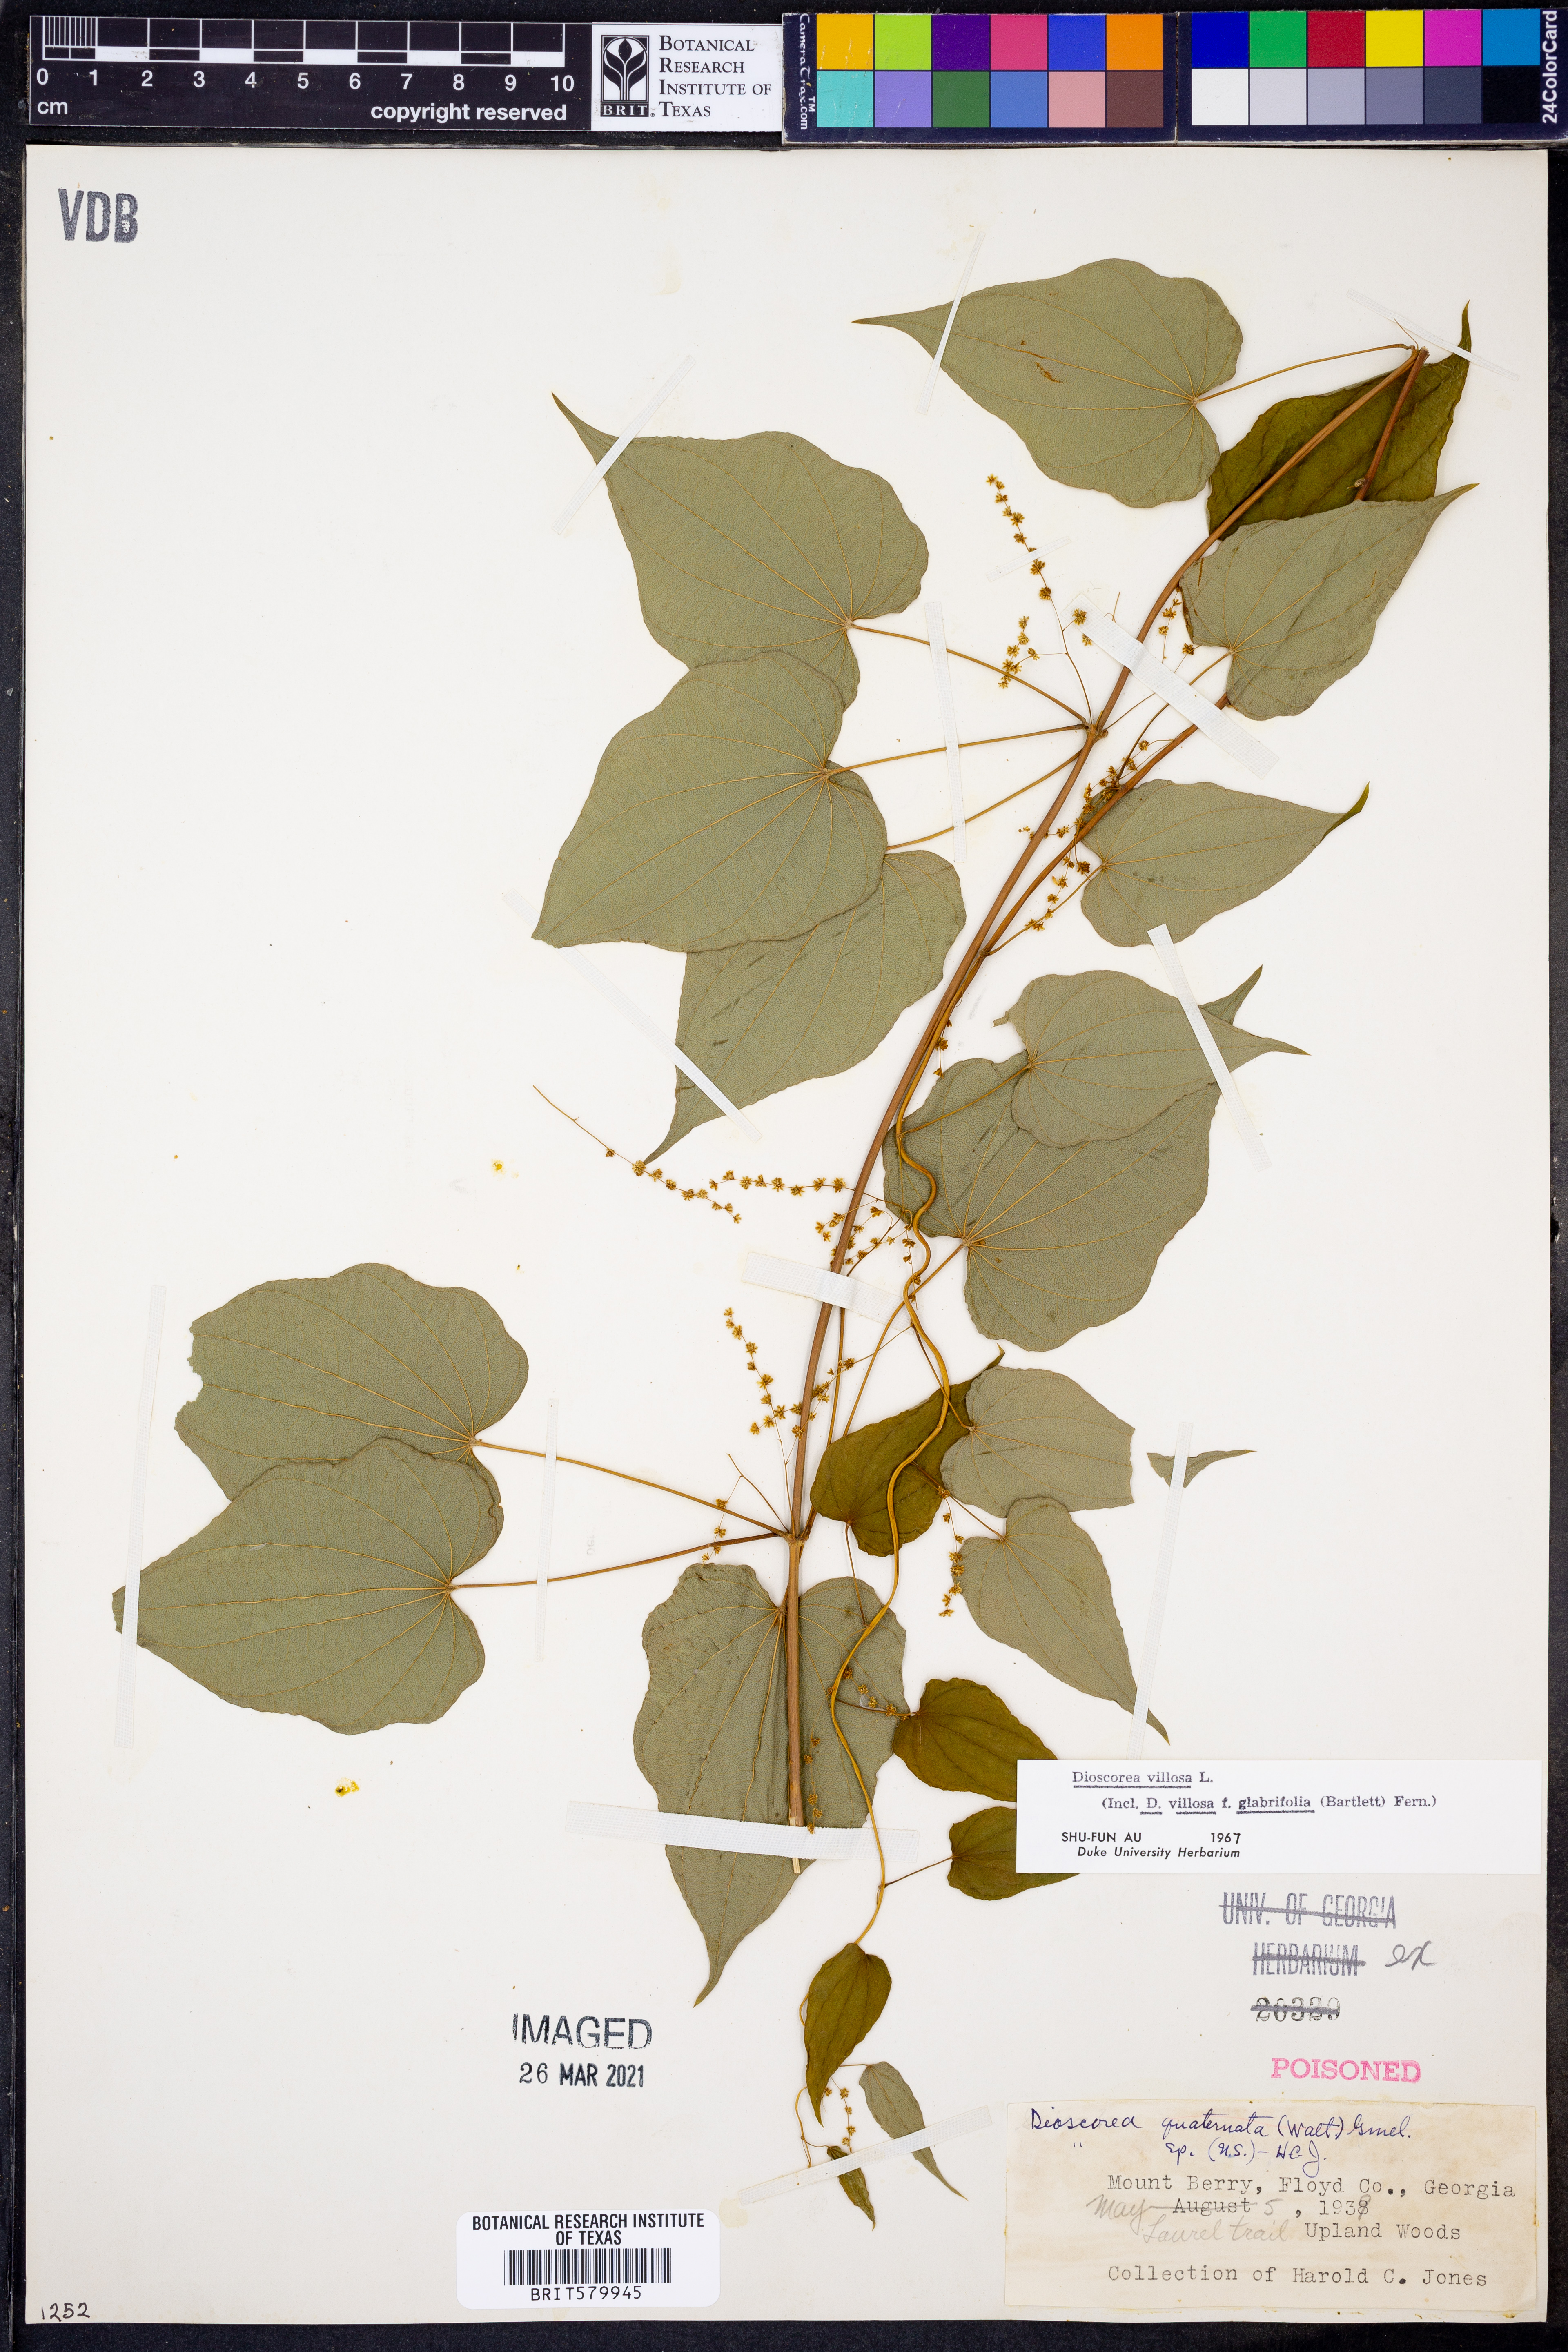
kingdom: Plantae
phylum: Tracheophyta
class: Liliopsida
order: Dioscoreales
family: Dioscoreaceae
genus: Dioscorea
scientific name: Dioscorea villosa
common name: Wild yam
